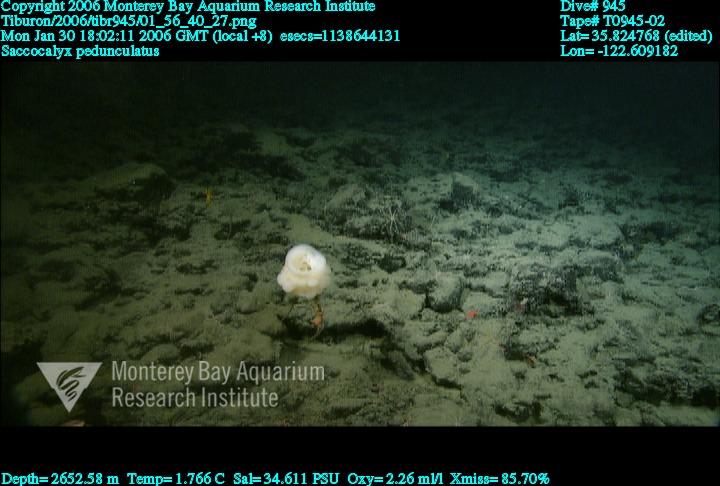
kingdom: Animalia
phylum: Porifera
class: Hexactinellida
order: Lyssacinosida
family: Euplectellidae
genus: Saccocalyx
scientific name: Saccocalyx pedunculatus
